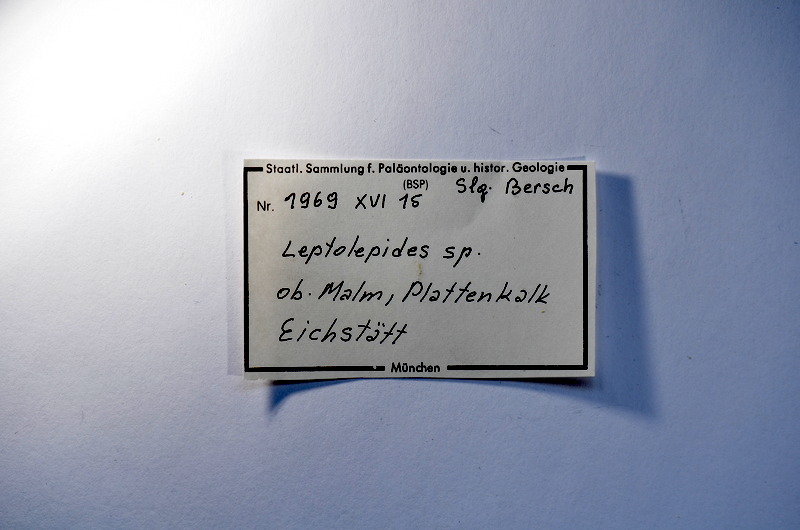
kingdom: Animalia
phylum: Chordata
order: Salmoniformes
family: Orthogonikleithridae
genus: Leptolepides
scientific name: Leptolepides
